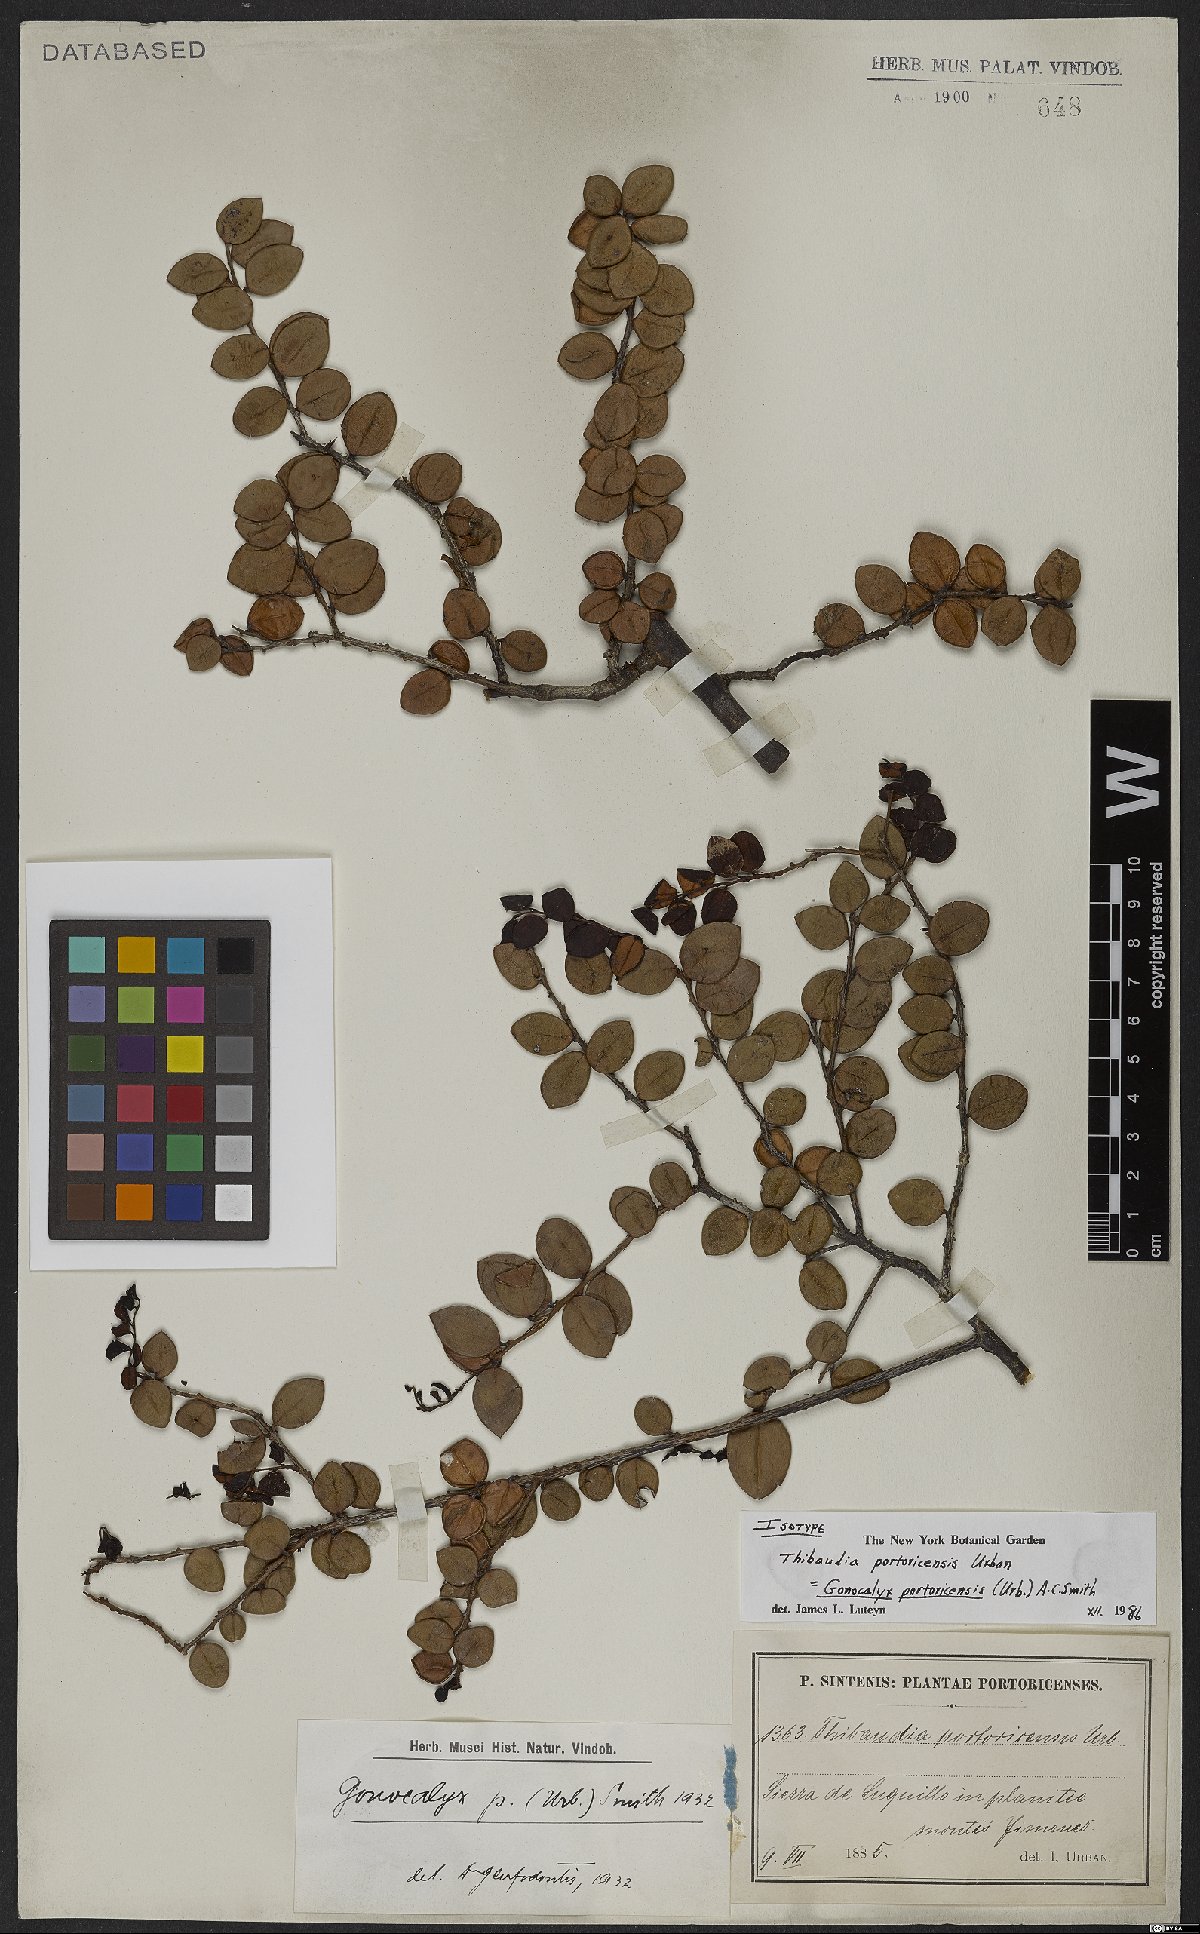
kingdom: Plantae
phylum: Tracheophyta
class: Magnoliopsida
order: Ericales
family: Ericaceae
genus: Gonocalyx
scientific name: Gonocalyx portoricensis
